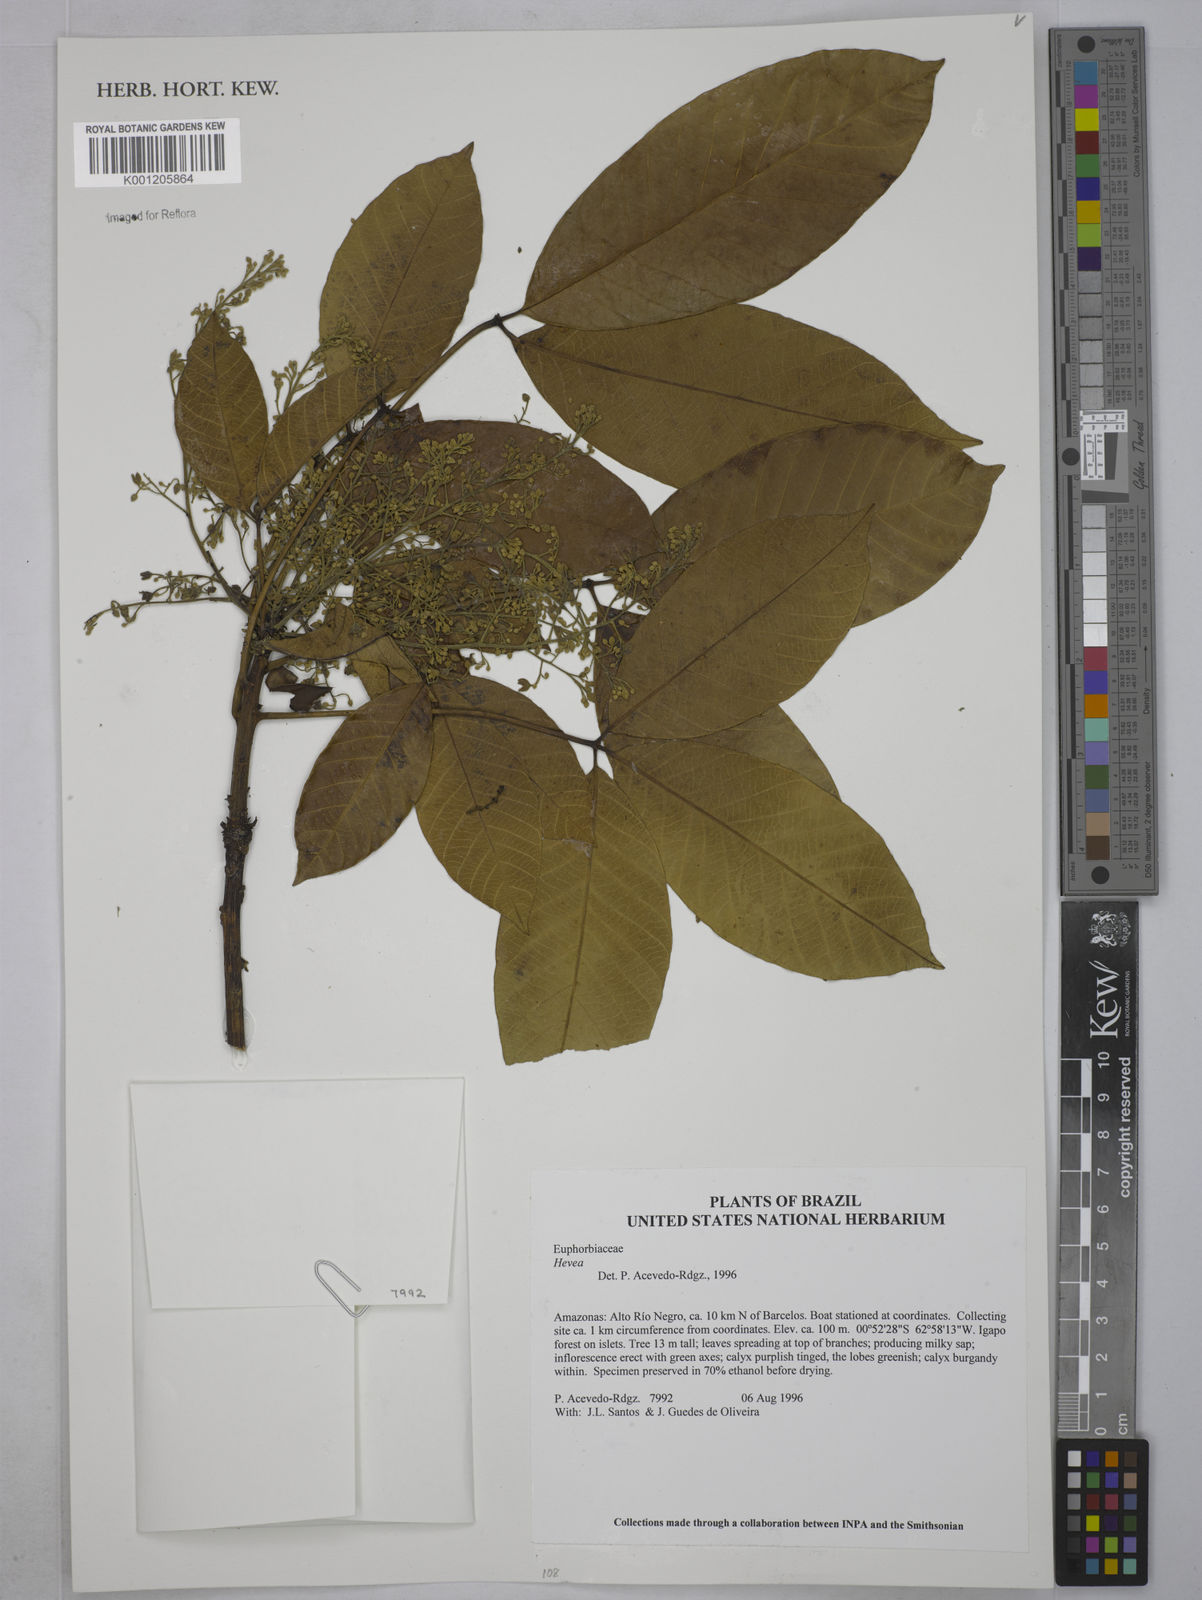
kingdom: Plantae
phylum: Tracheophyta
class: Magnoliopsida
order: Malpighiales
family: Euphorbiaceae
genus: Hevea
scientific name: Hevea
